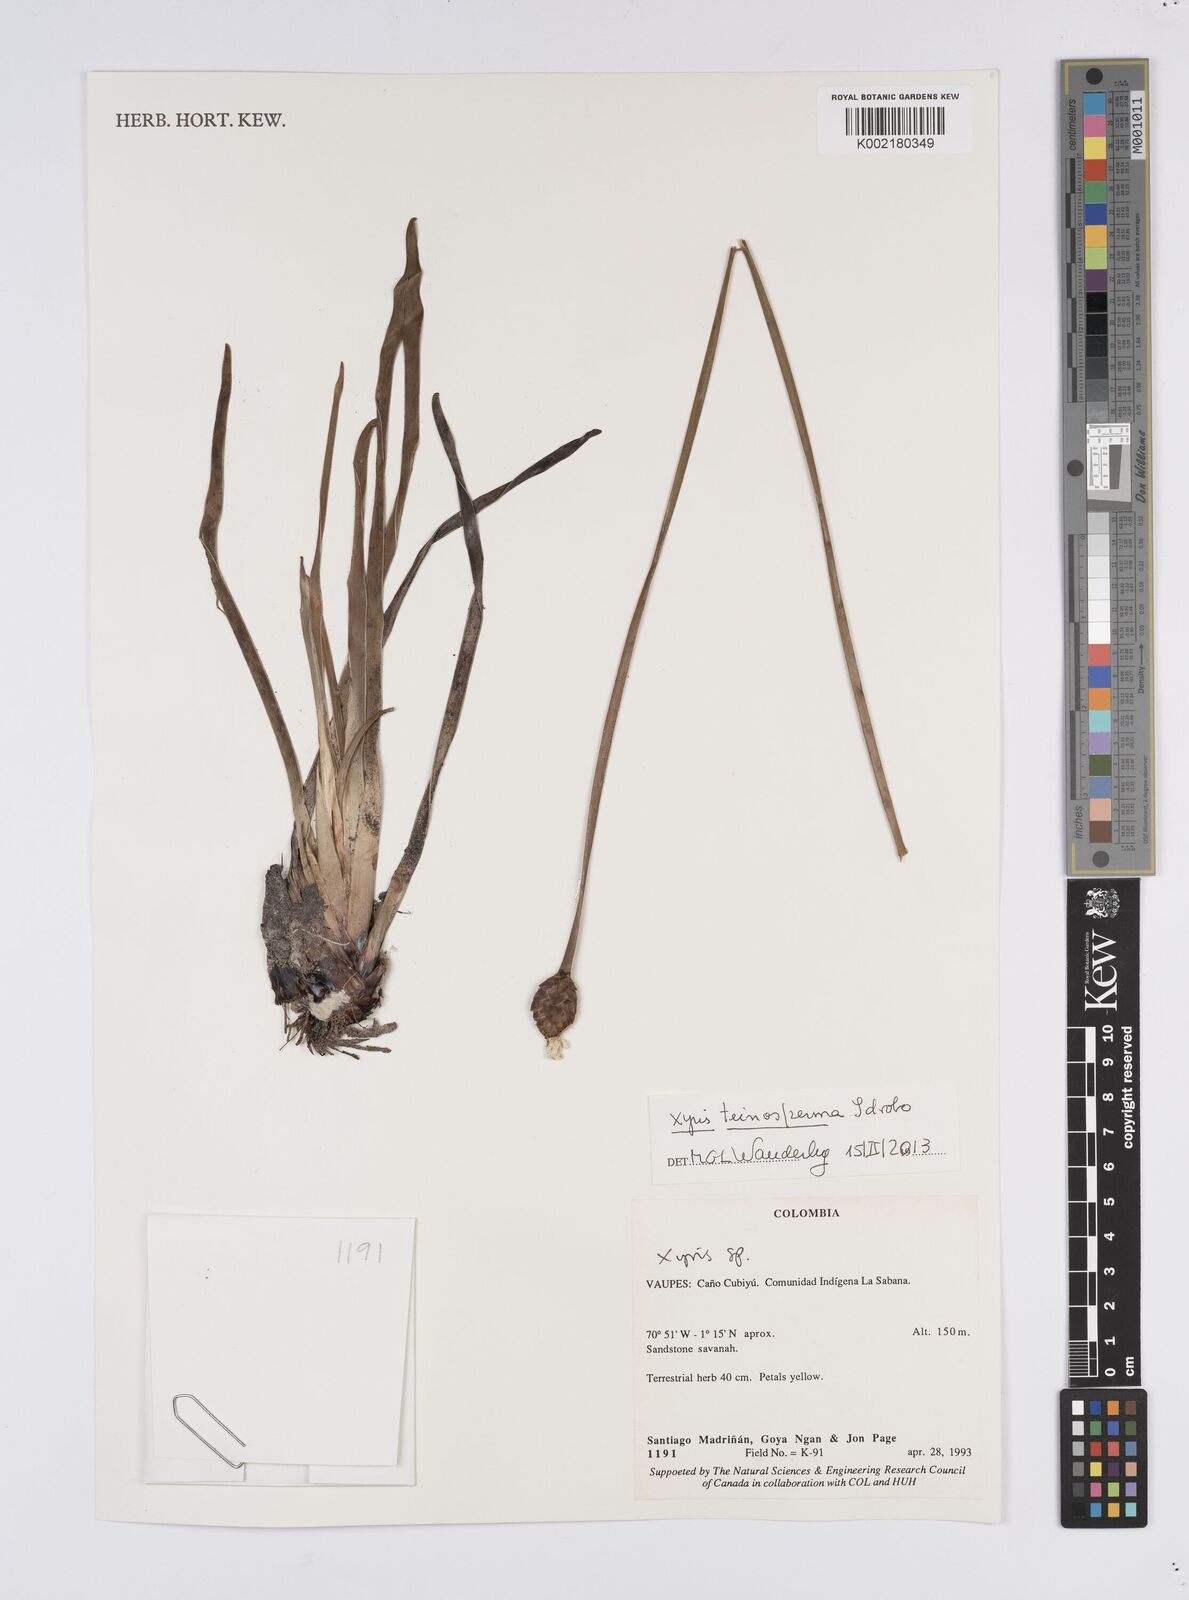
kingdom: Plantae
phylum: Tracheophyta
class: Liliopsida
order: Poales
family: Xyridaceae
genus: Xyris
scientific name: Xyris teinosperma
